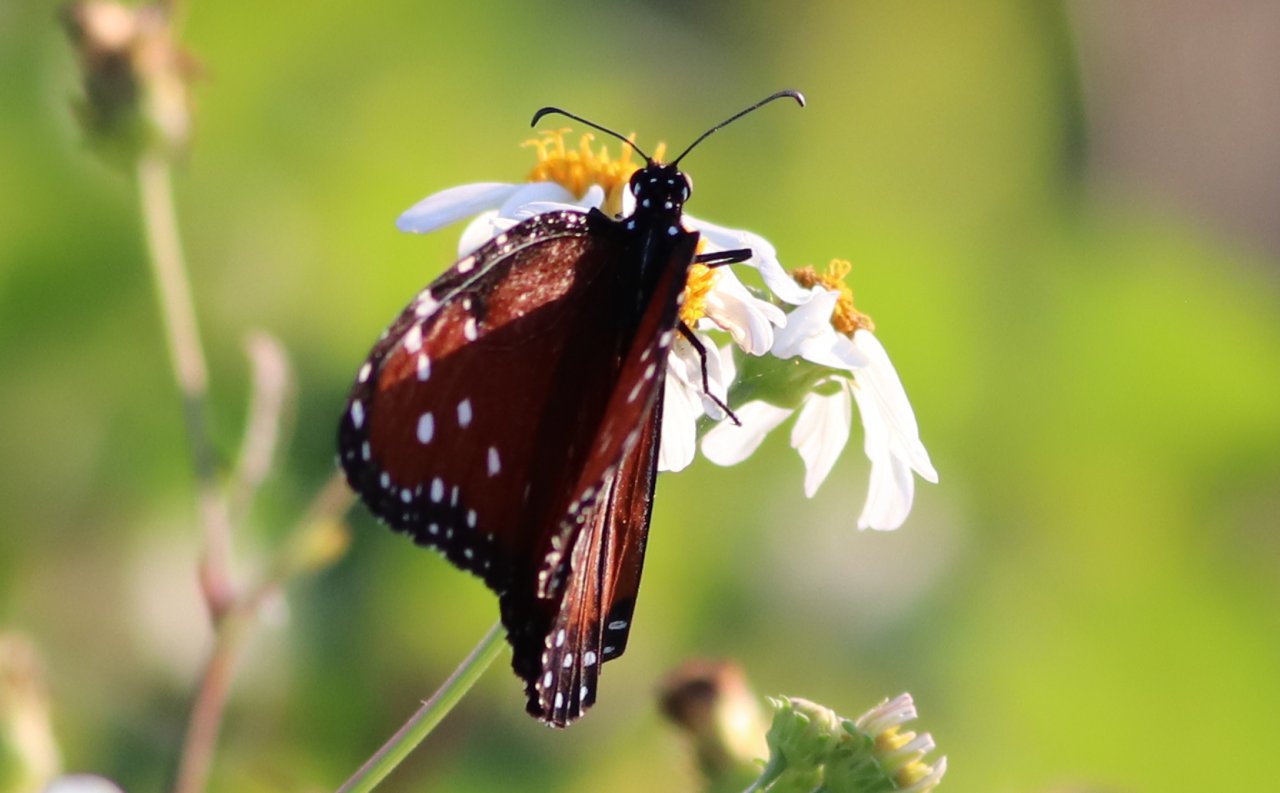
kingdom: Animalia
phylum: Arthropoda
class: Insecta
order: Lepidoptera
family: Nymphalidae
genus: Danaus
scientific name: Danaus gilippus
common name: Queen
